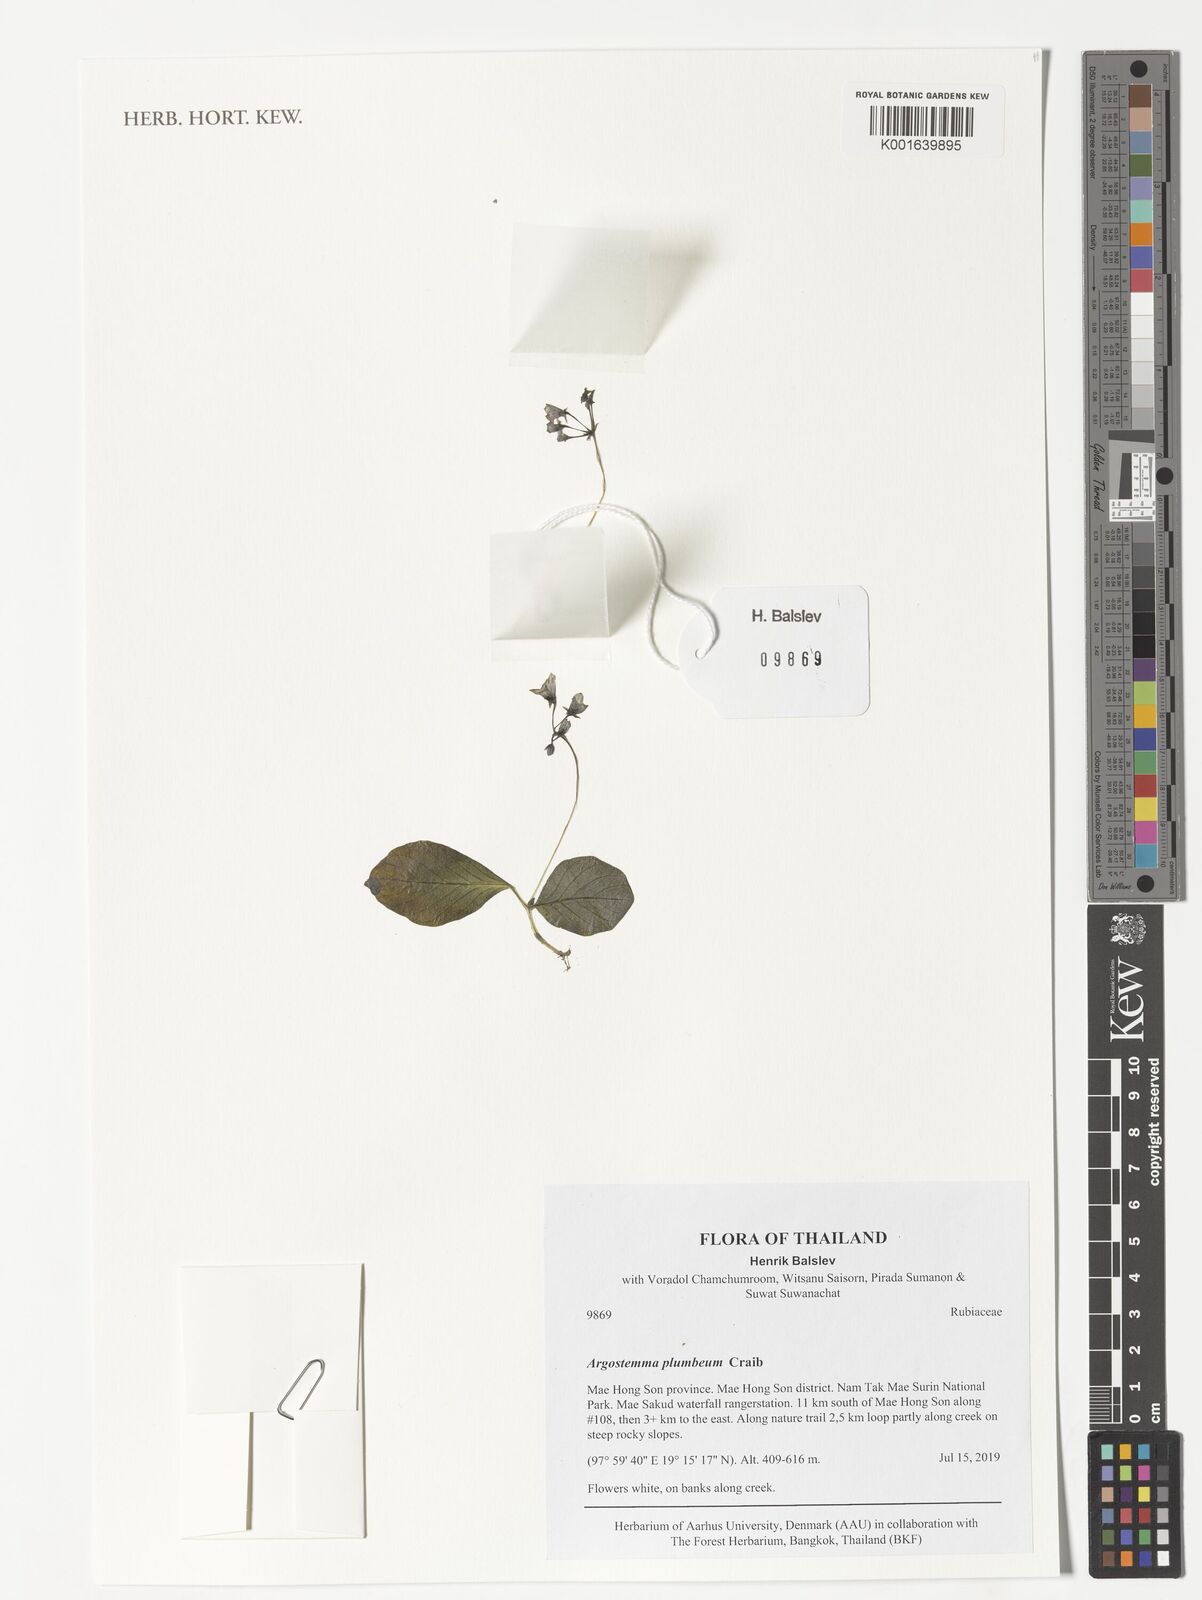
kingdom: Plantae
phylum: Tracheophyta
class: Magnoliopsida
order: Gentianales
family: Rubiaceae
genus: Argostemma
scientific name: Argostemma plumbeum
